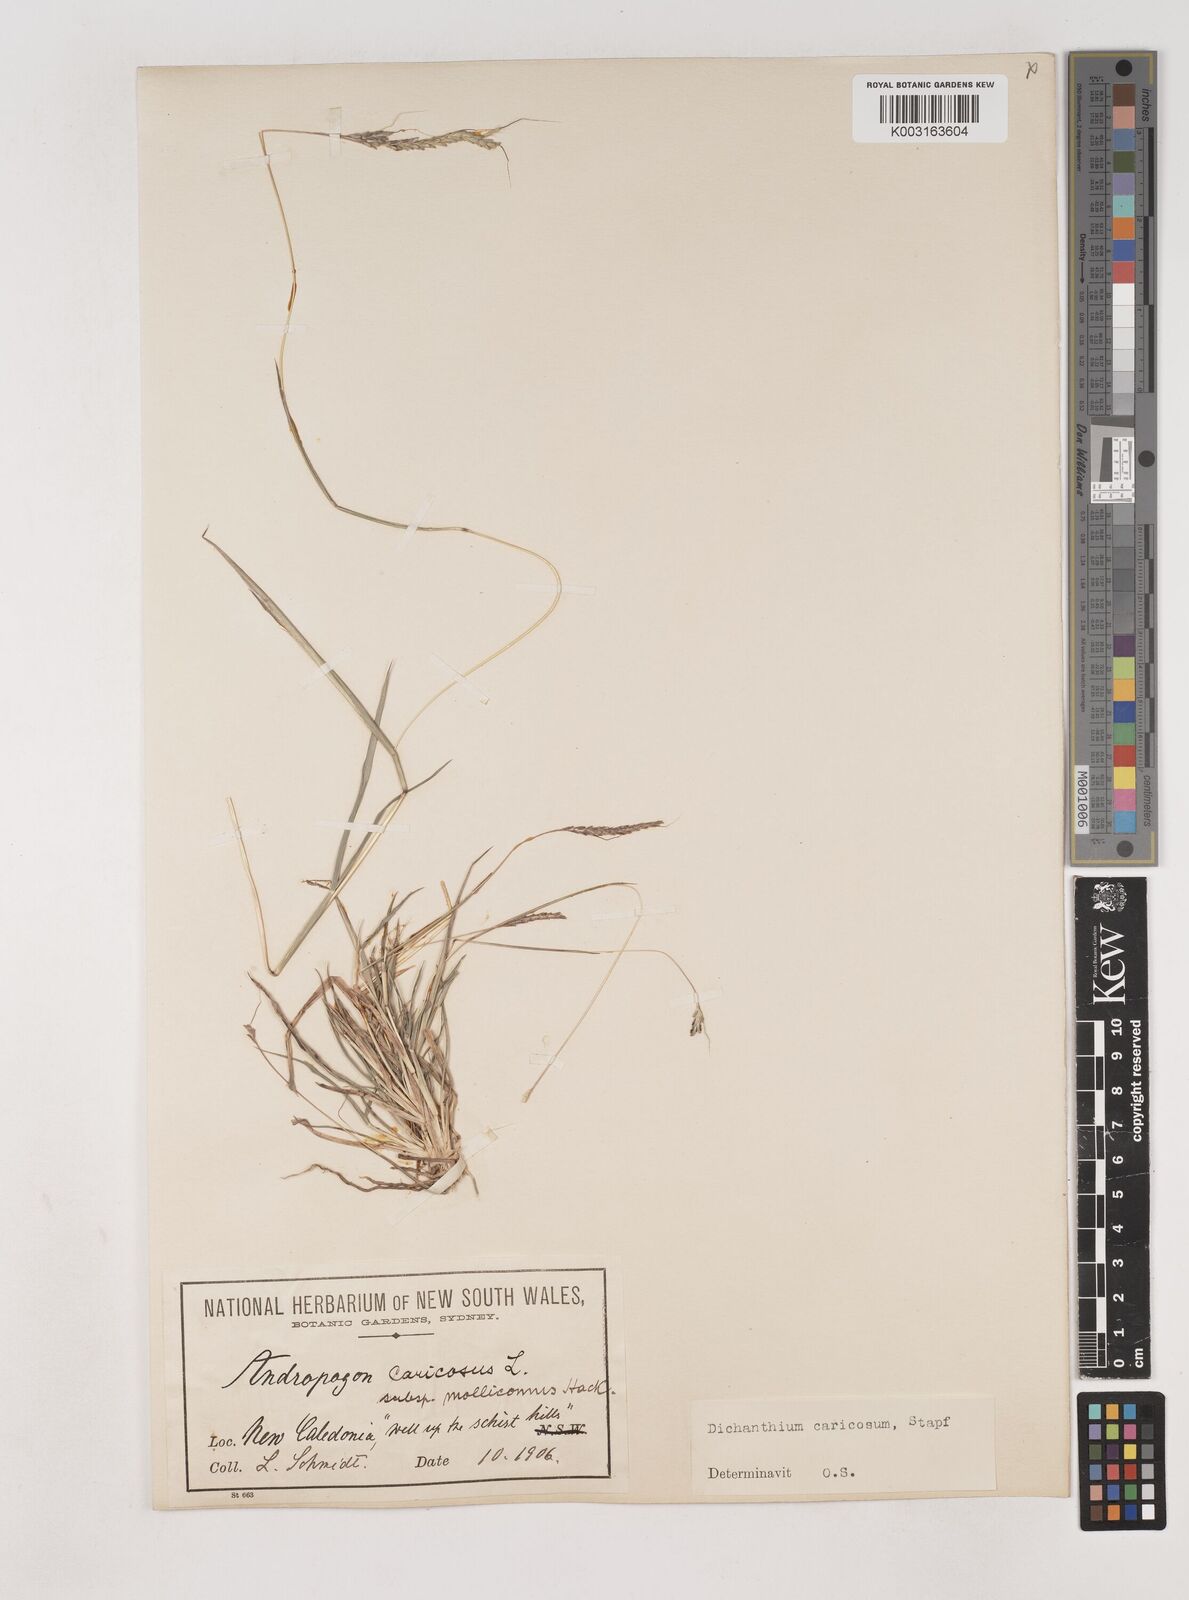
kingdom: Plantae
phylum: Tracheophyta
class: Liliopsida
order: Poales
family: Poaceae
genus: Dichanthium
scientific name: Dichanthium aristatum
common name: Angleton bluestem
